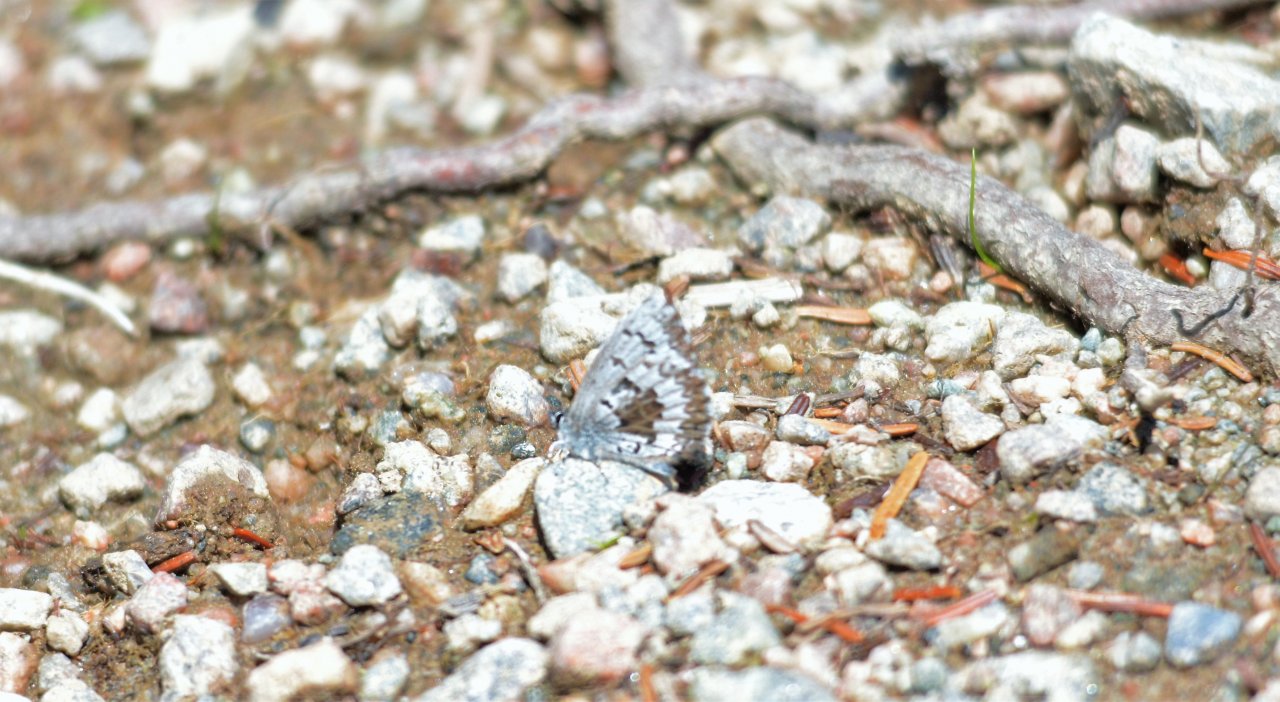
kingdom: Animalia
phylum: Arthropoda
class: Insecta
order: Lepidoptera
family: Lycaenidae
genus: Celastrina
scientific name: Celastrina lucia
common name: Northern Spring Azure
